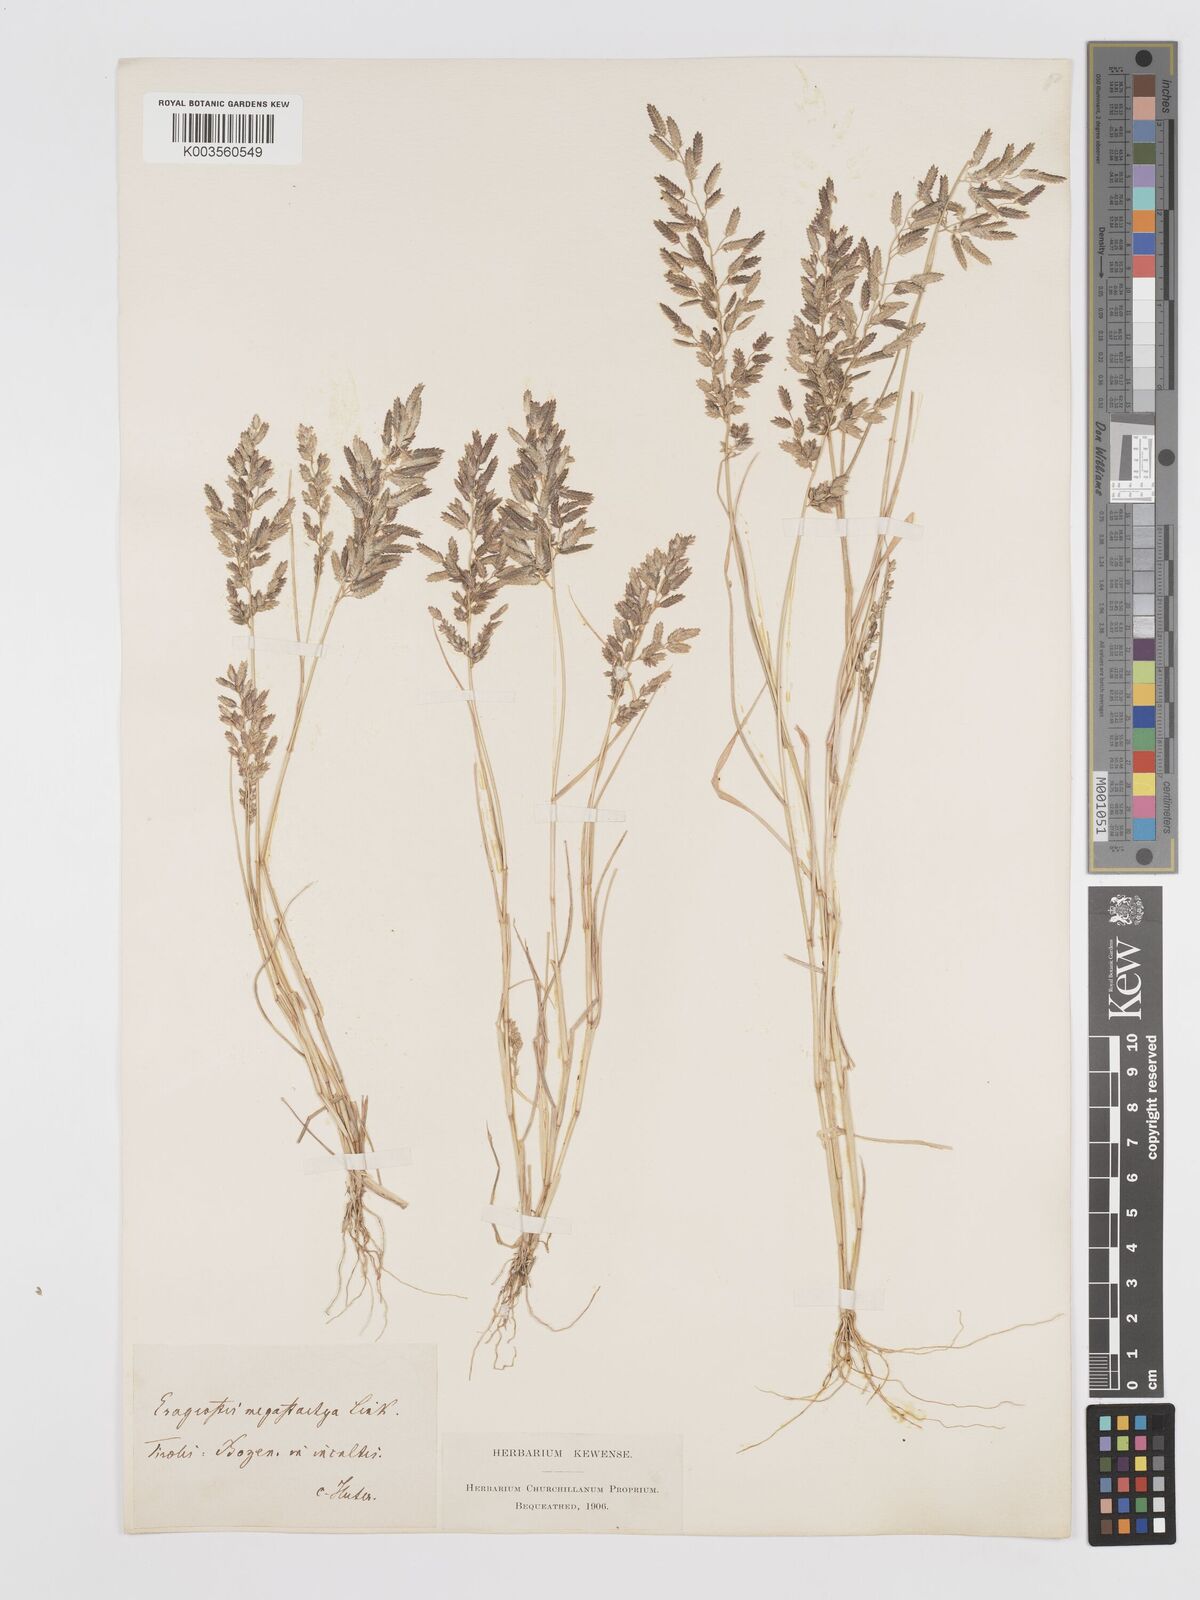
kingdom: Plantae
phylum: Tracheophyta
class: Liliopsida
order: Poales
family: Poaceae
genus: Eragrostis
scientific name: Eragrostis cilianensis
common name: Stinkgrass
